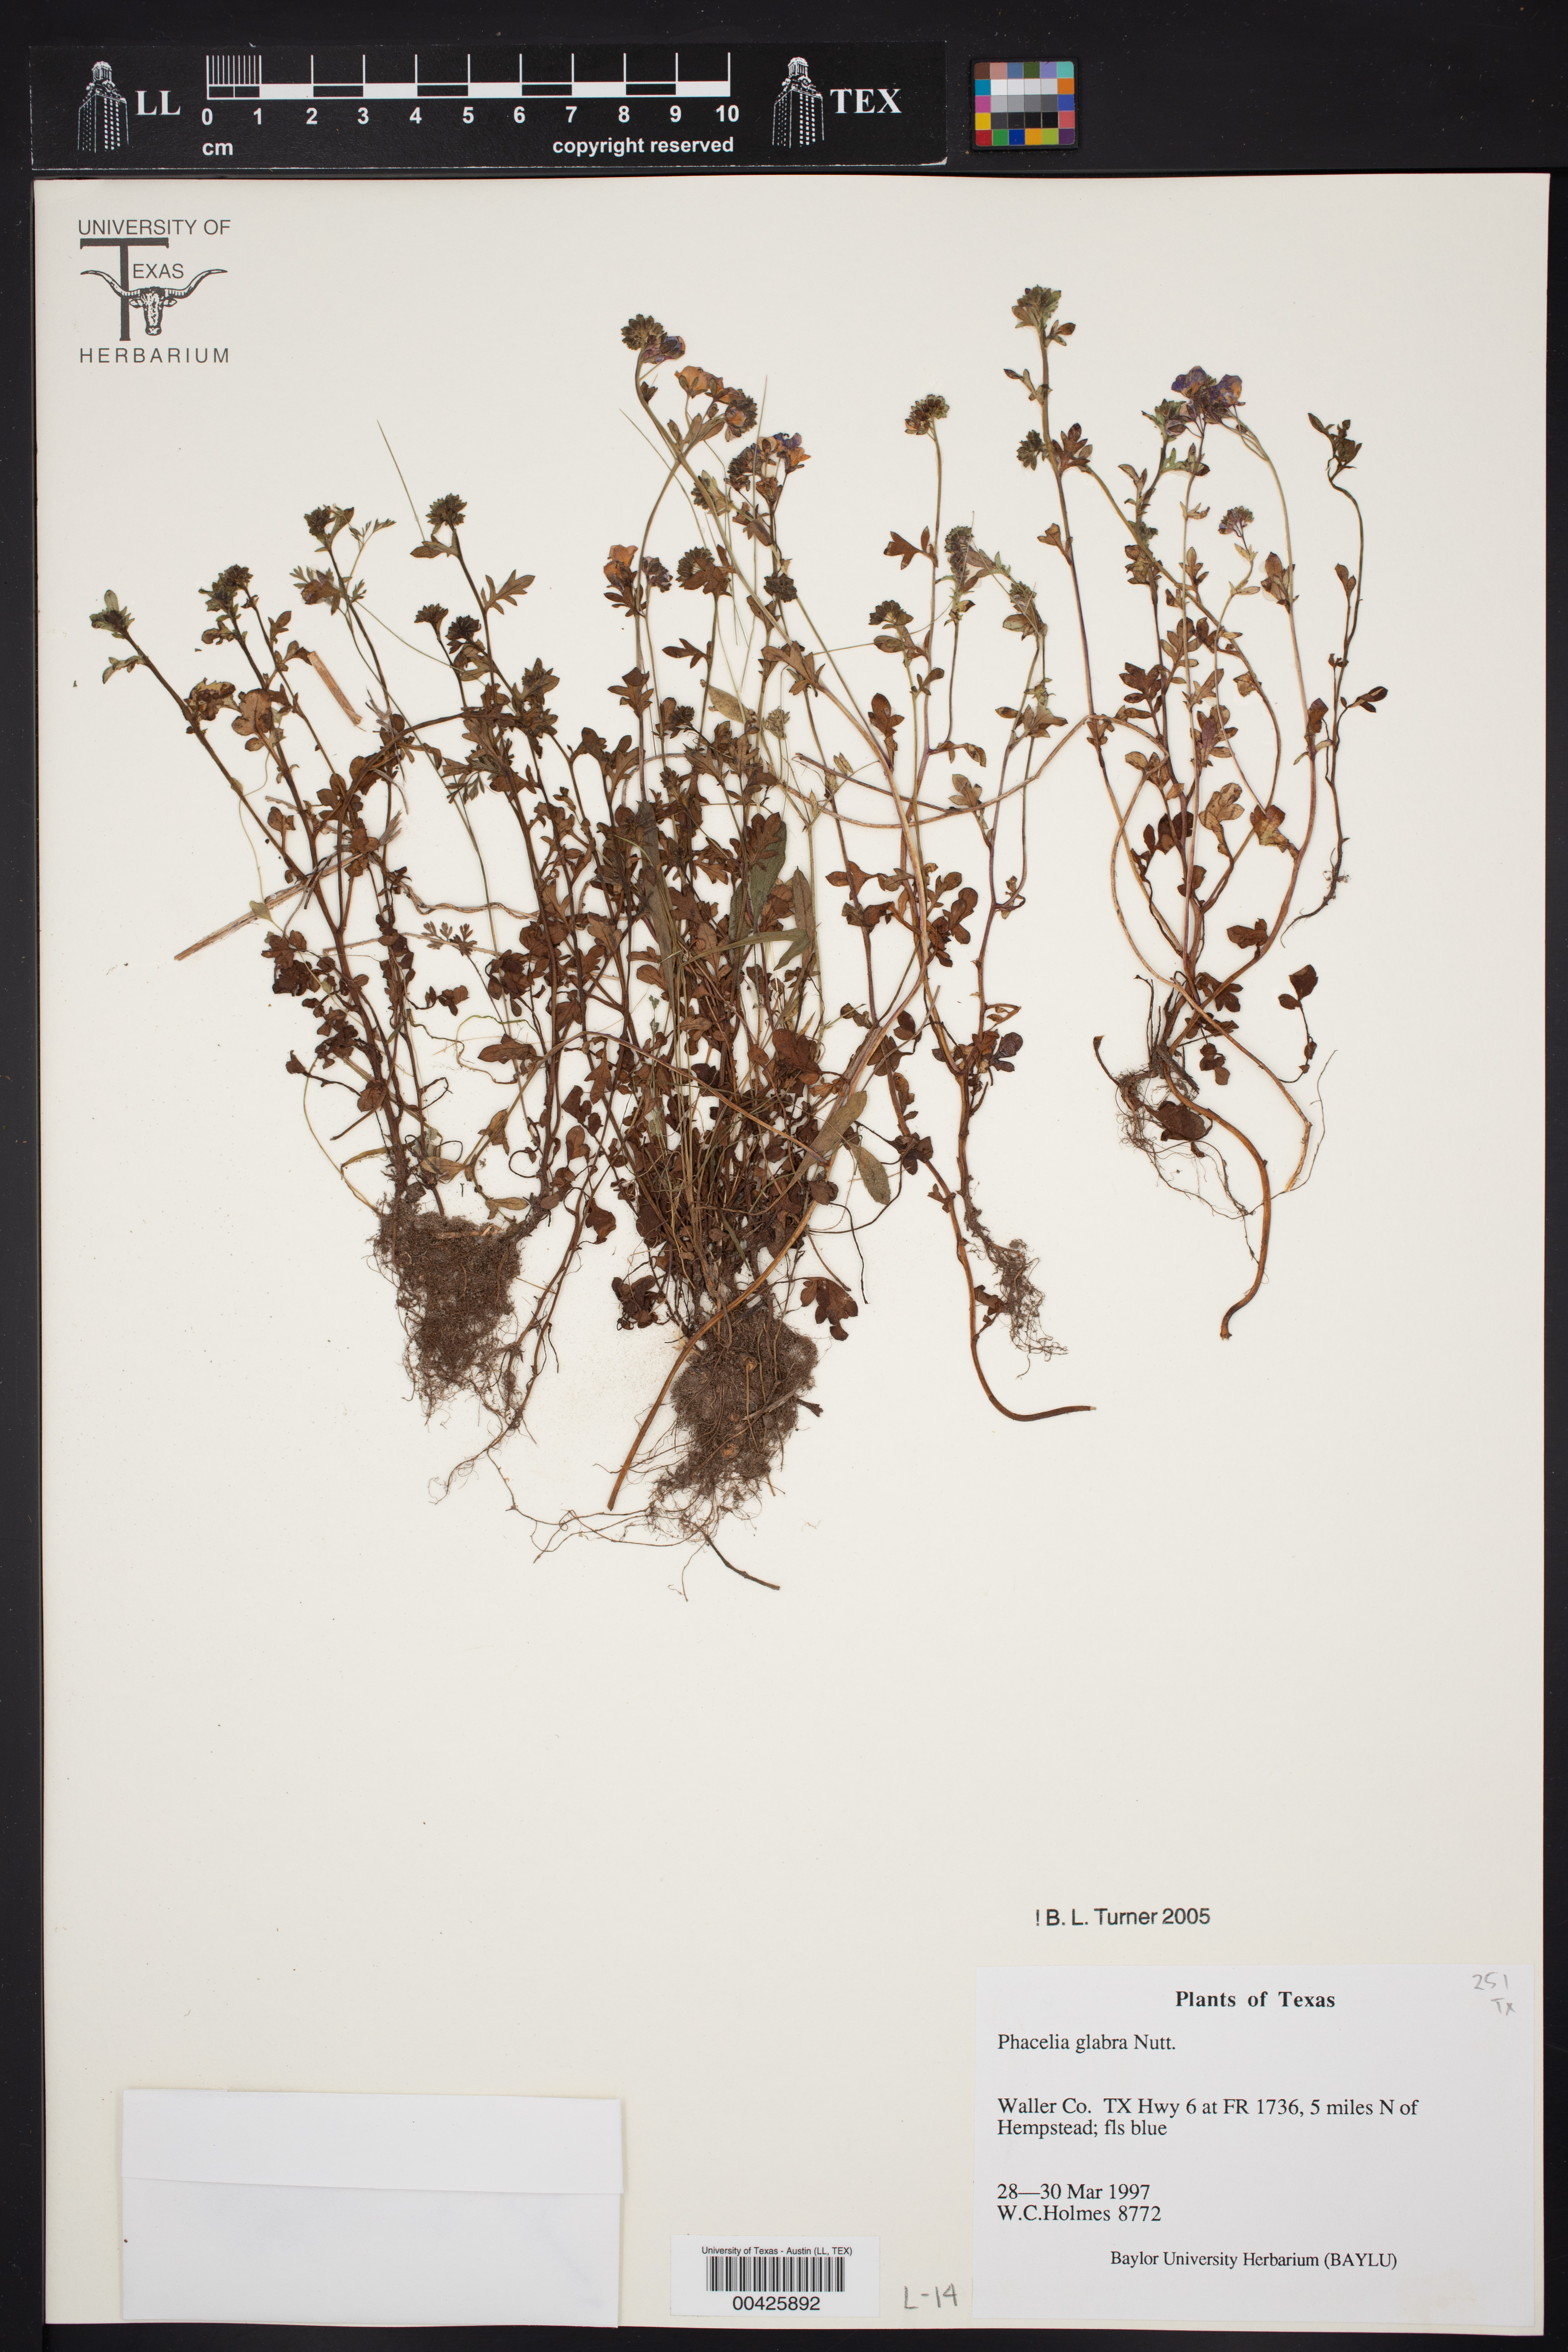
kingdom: Plantae
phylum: Tracheophyta
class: Magnoliopsida
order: Boraginales
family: Hydrophyllaceae
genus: Phacelia
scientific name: Phacelia glabra
